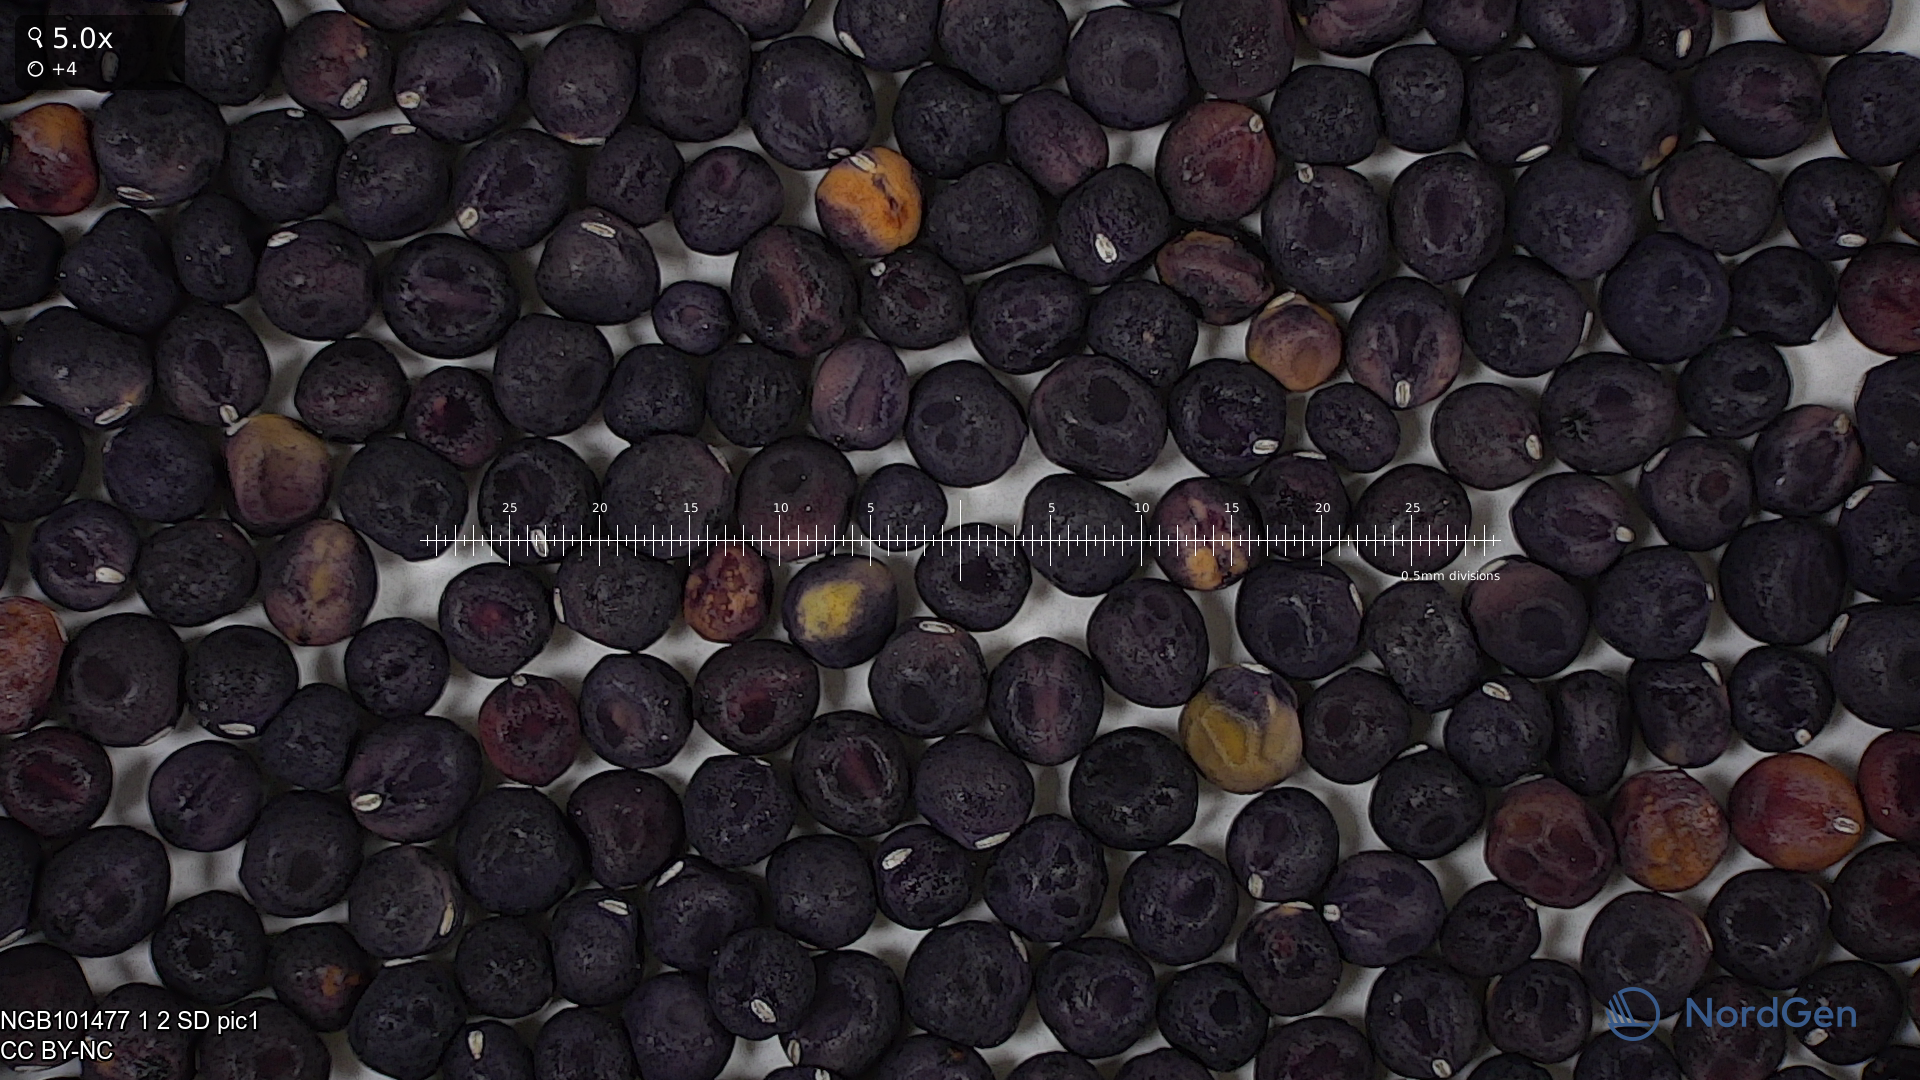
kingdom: Plantae
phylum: Tracheophyta
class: Magnoliopsida
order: Fabales
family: Fabaceae
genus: Lathyrus
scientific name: Lathyrus oleraceus
